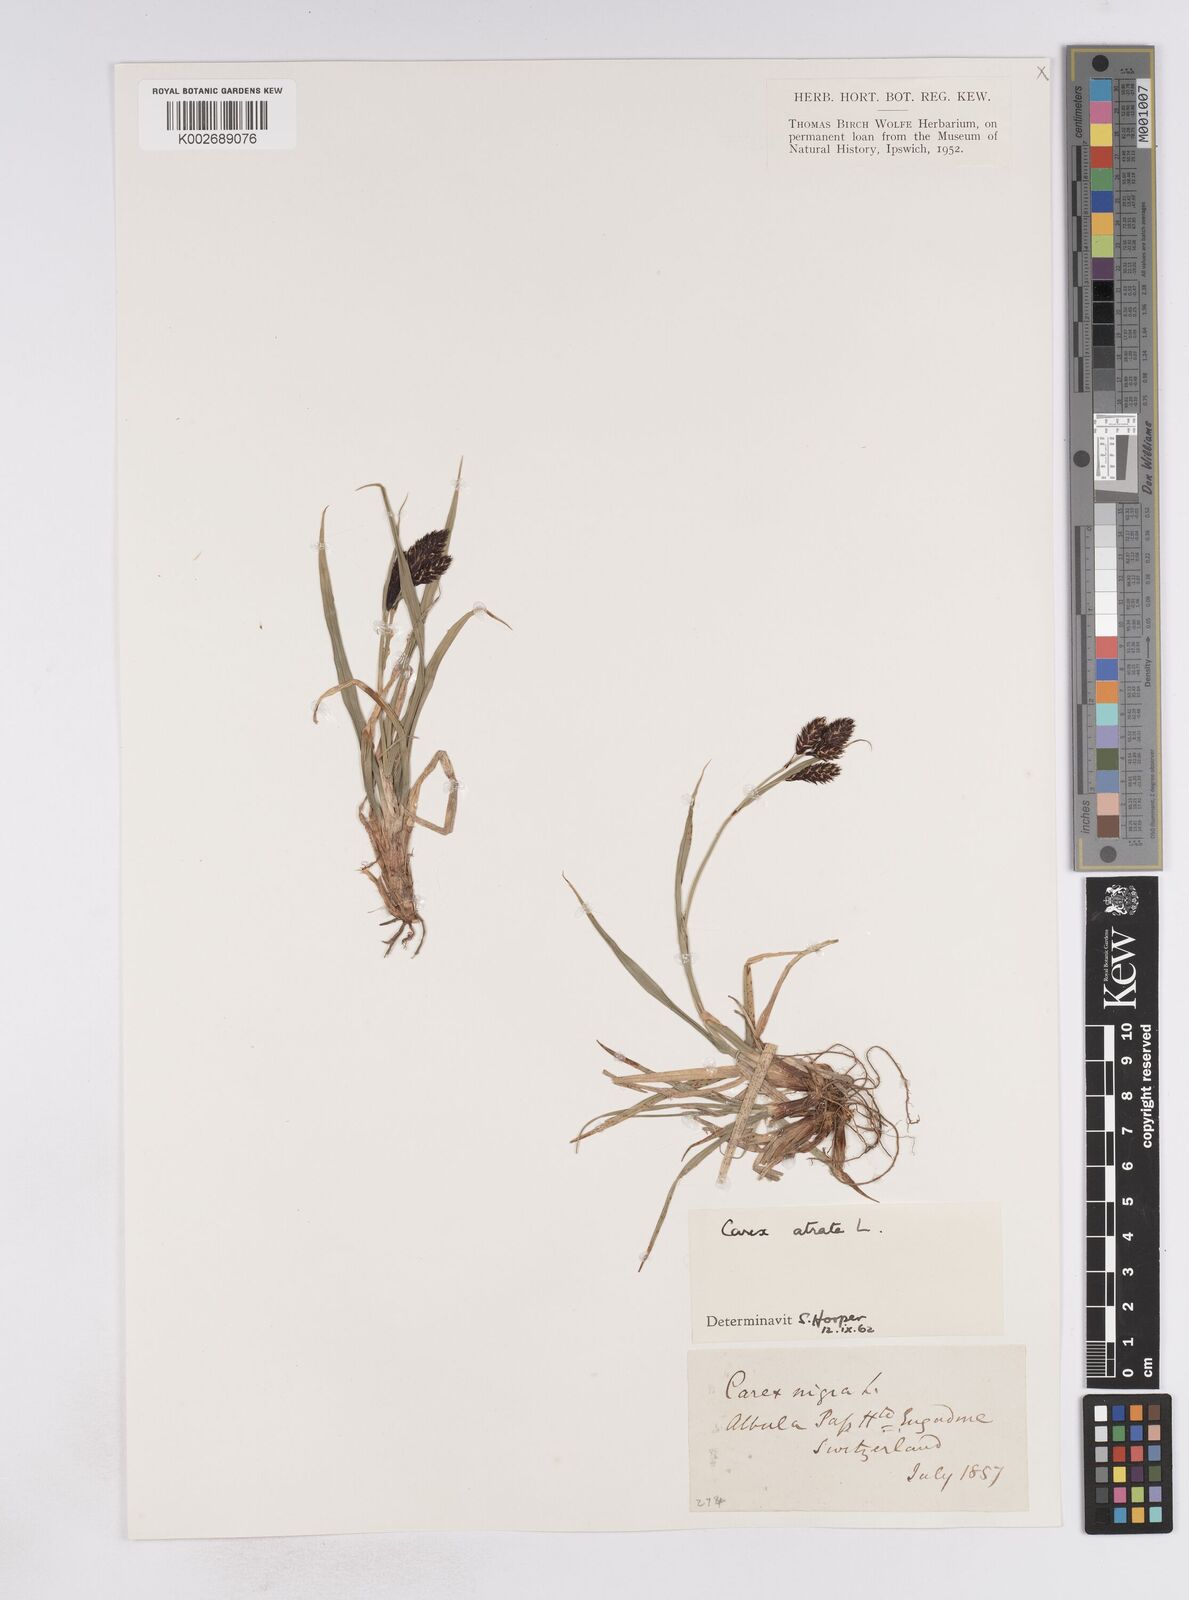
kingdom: Plantae
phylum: Tracheophyta
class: Liliopsida
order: Poales
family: Cyperaceae
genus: Carex
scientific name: Carex atrata
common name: Black alpine sedge
